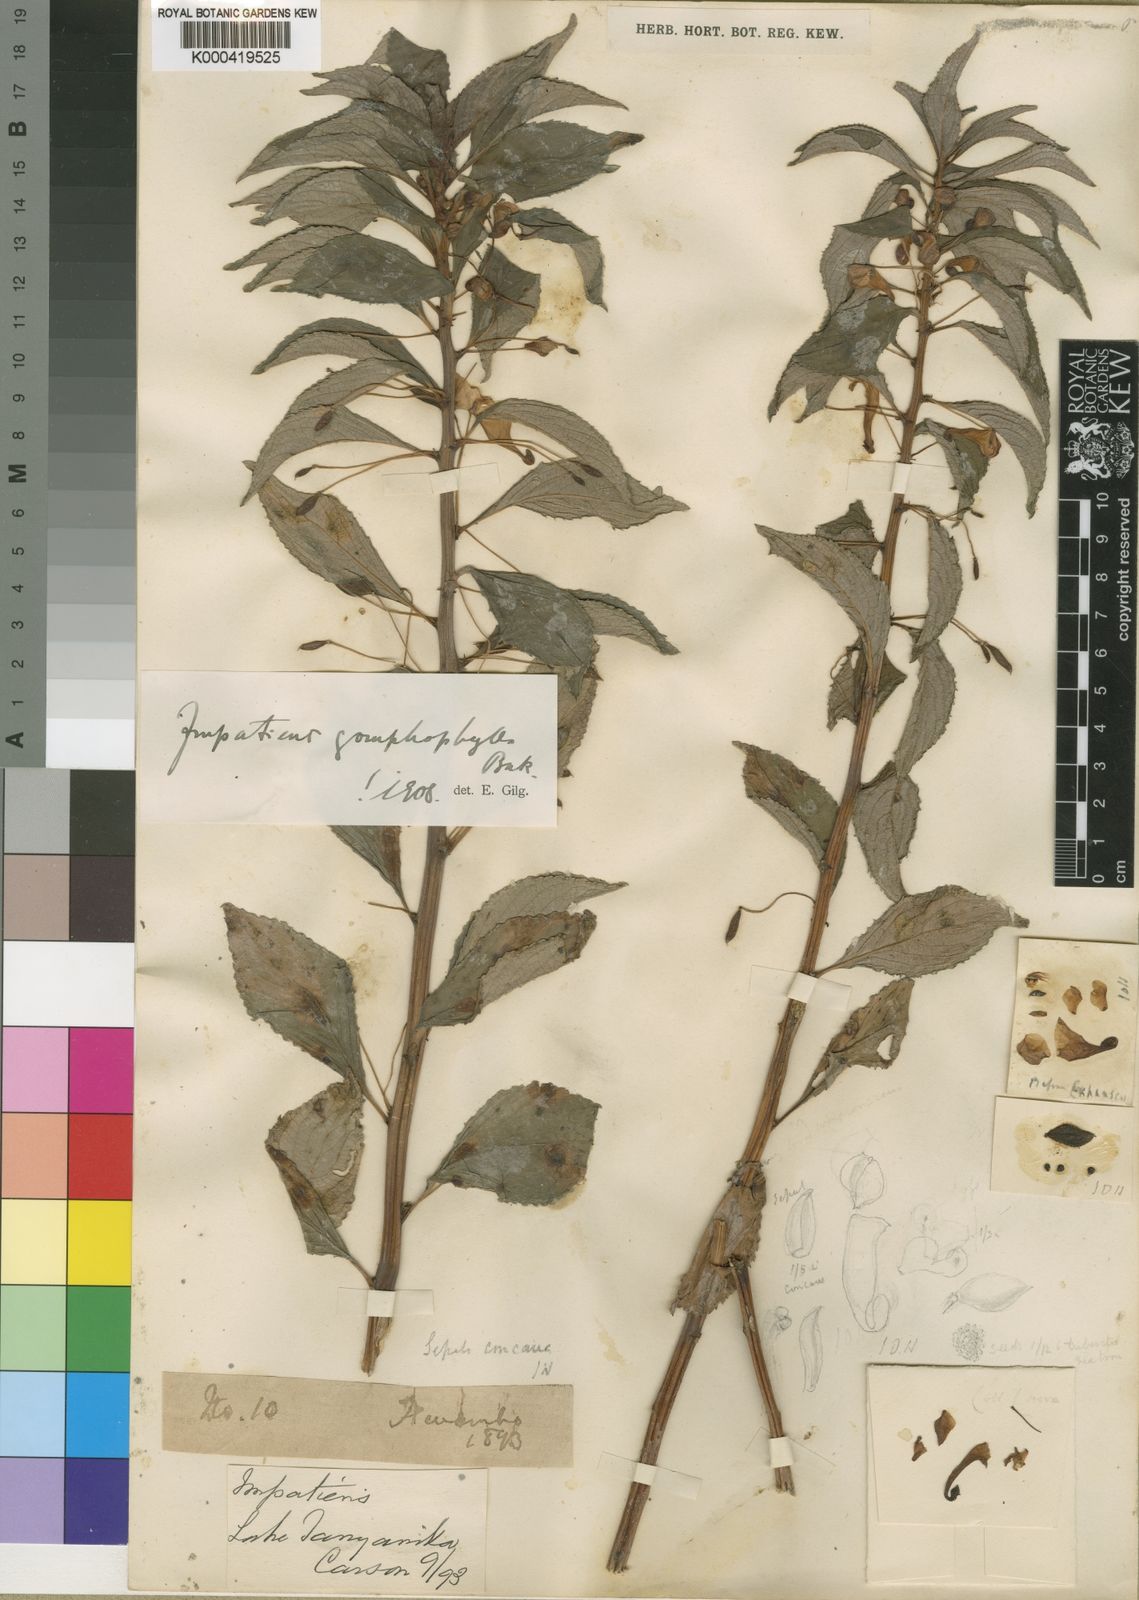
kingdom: Plantae
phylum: Tracheophyta
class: Magnoliopsida
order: Ericales
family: Balsaminaceae
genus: Impatiens
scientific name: Impatiens gomphophylla
